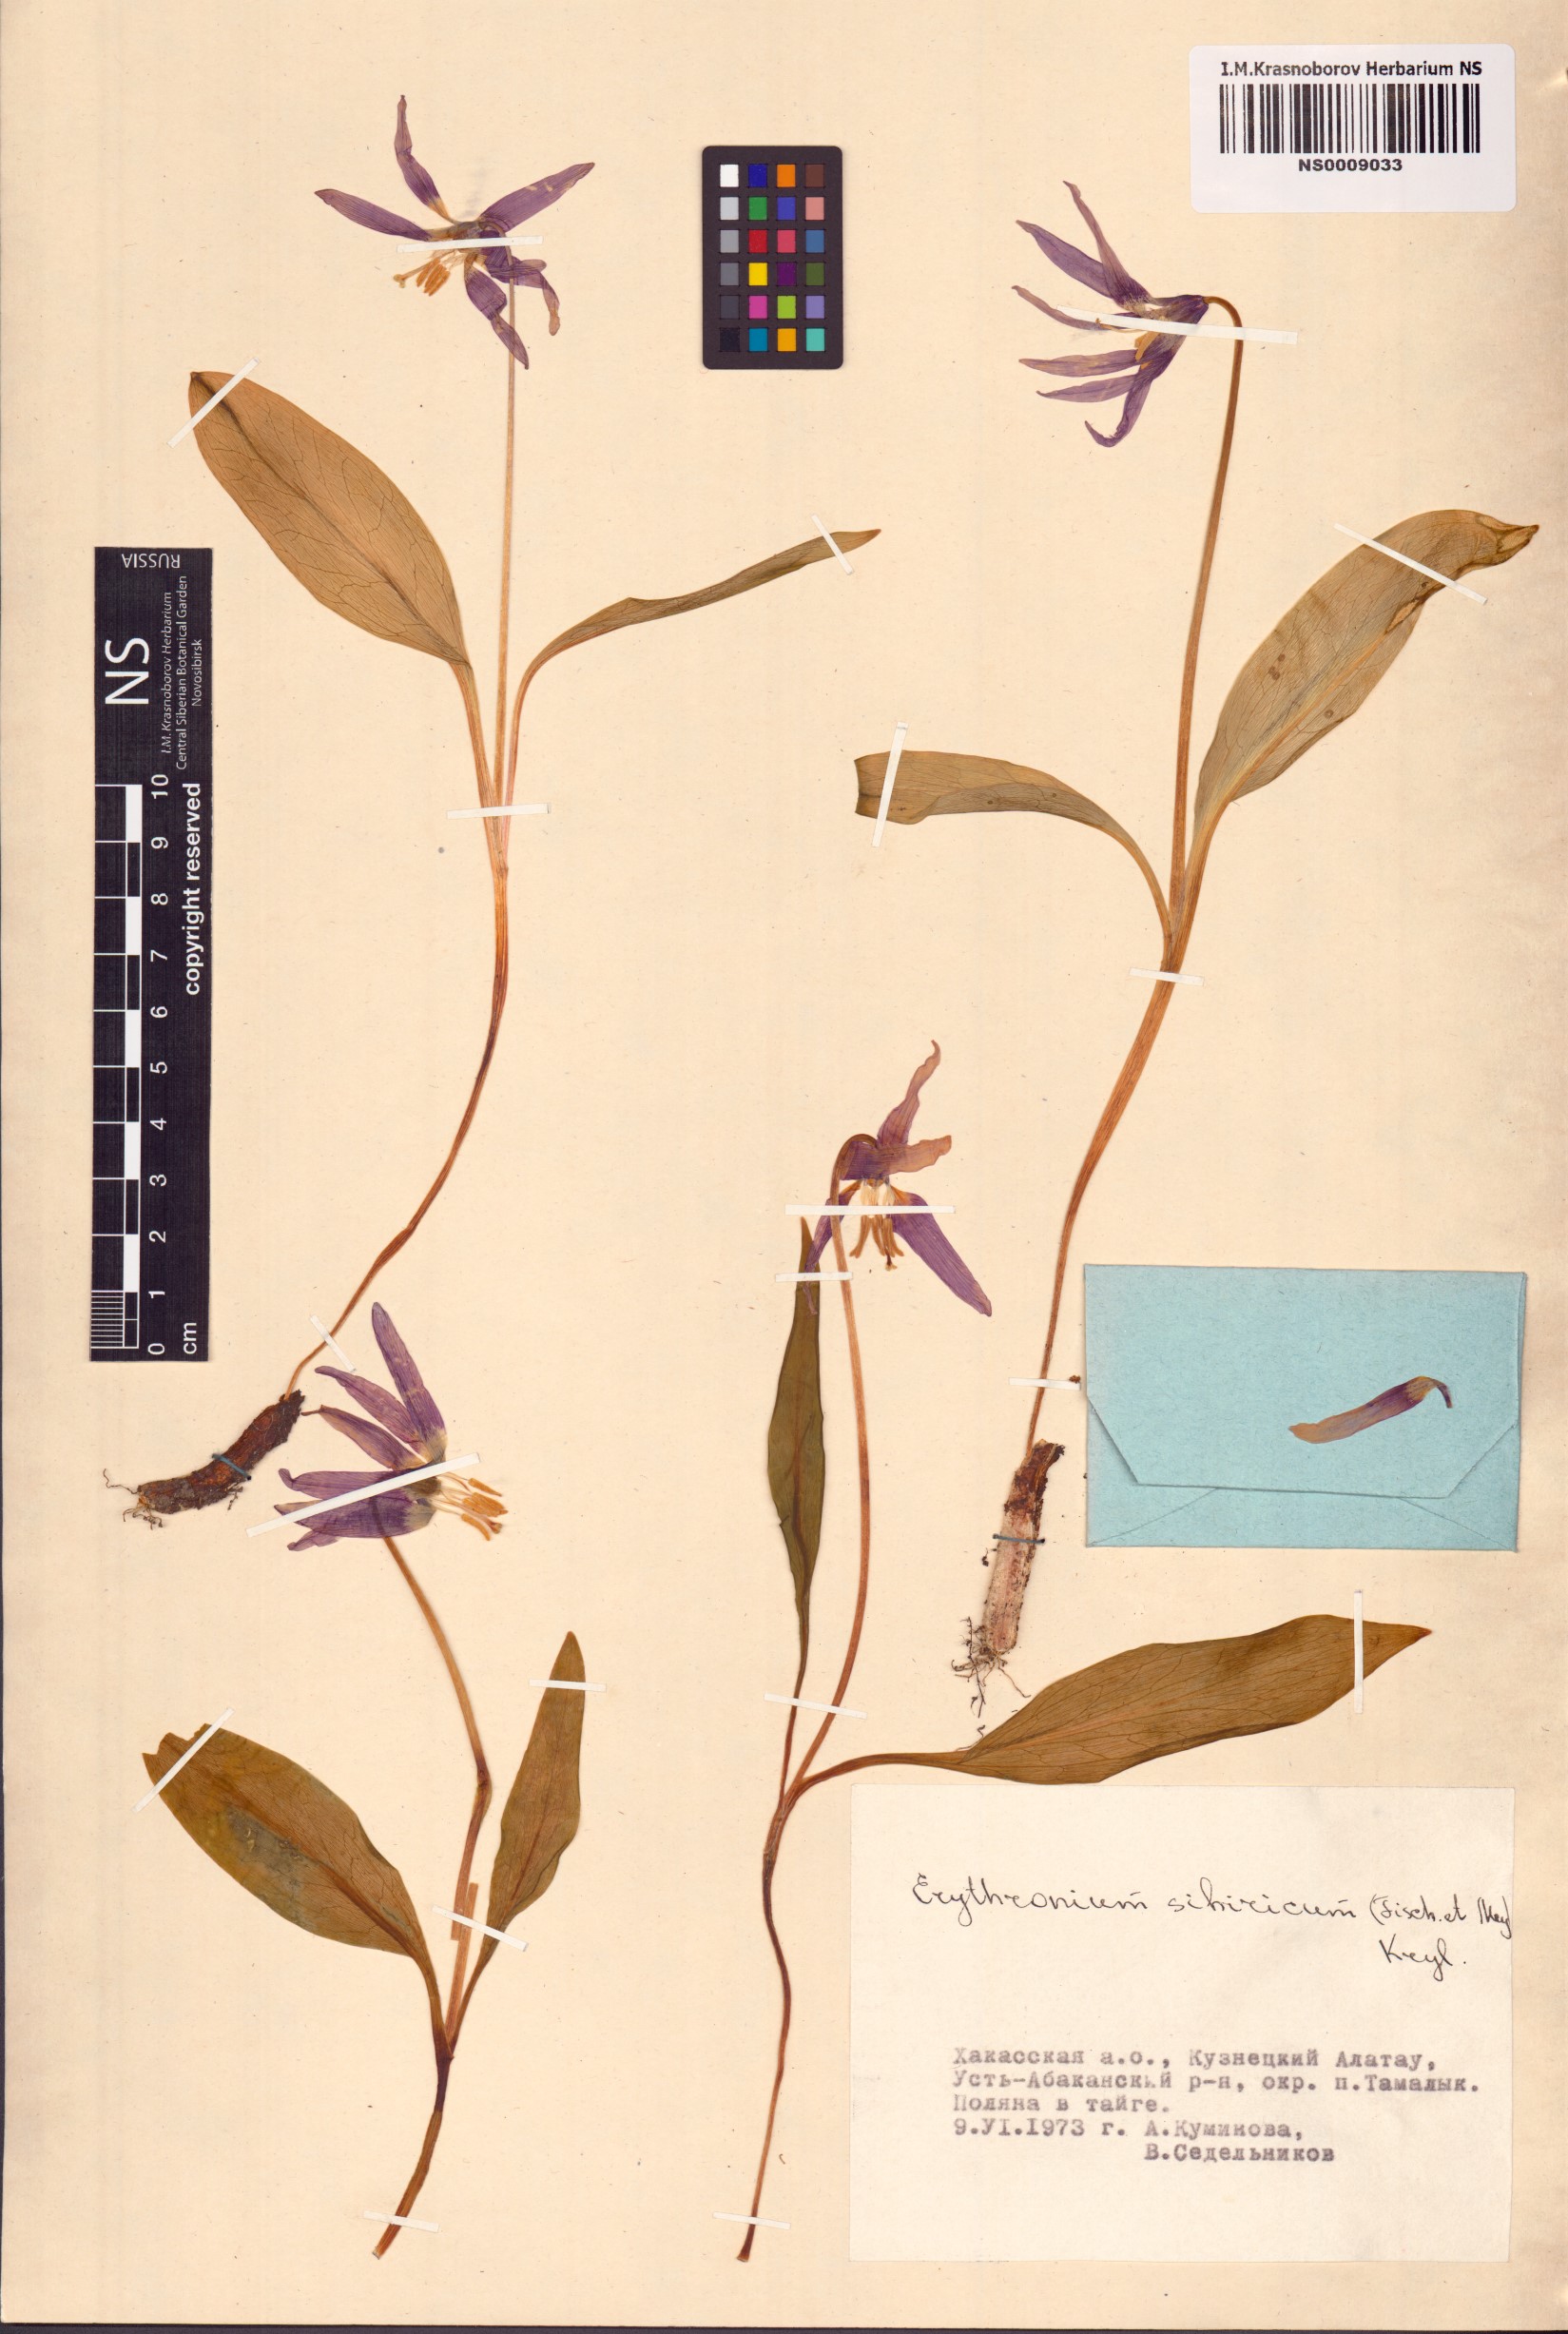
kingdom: Plantae
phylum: Tracheophyta
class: Liliopsida
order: Liliales
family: Liliaceae
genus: Erythronium
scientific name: Erythronium sibiricum
